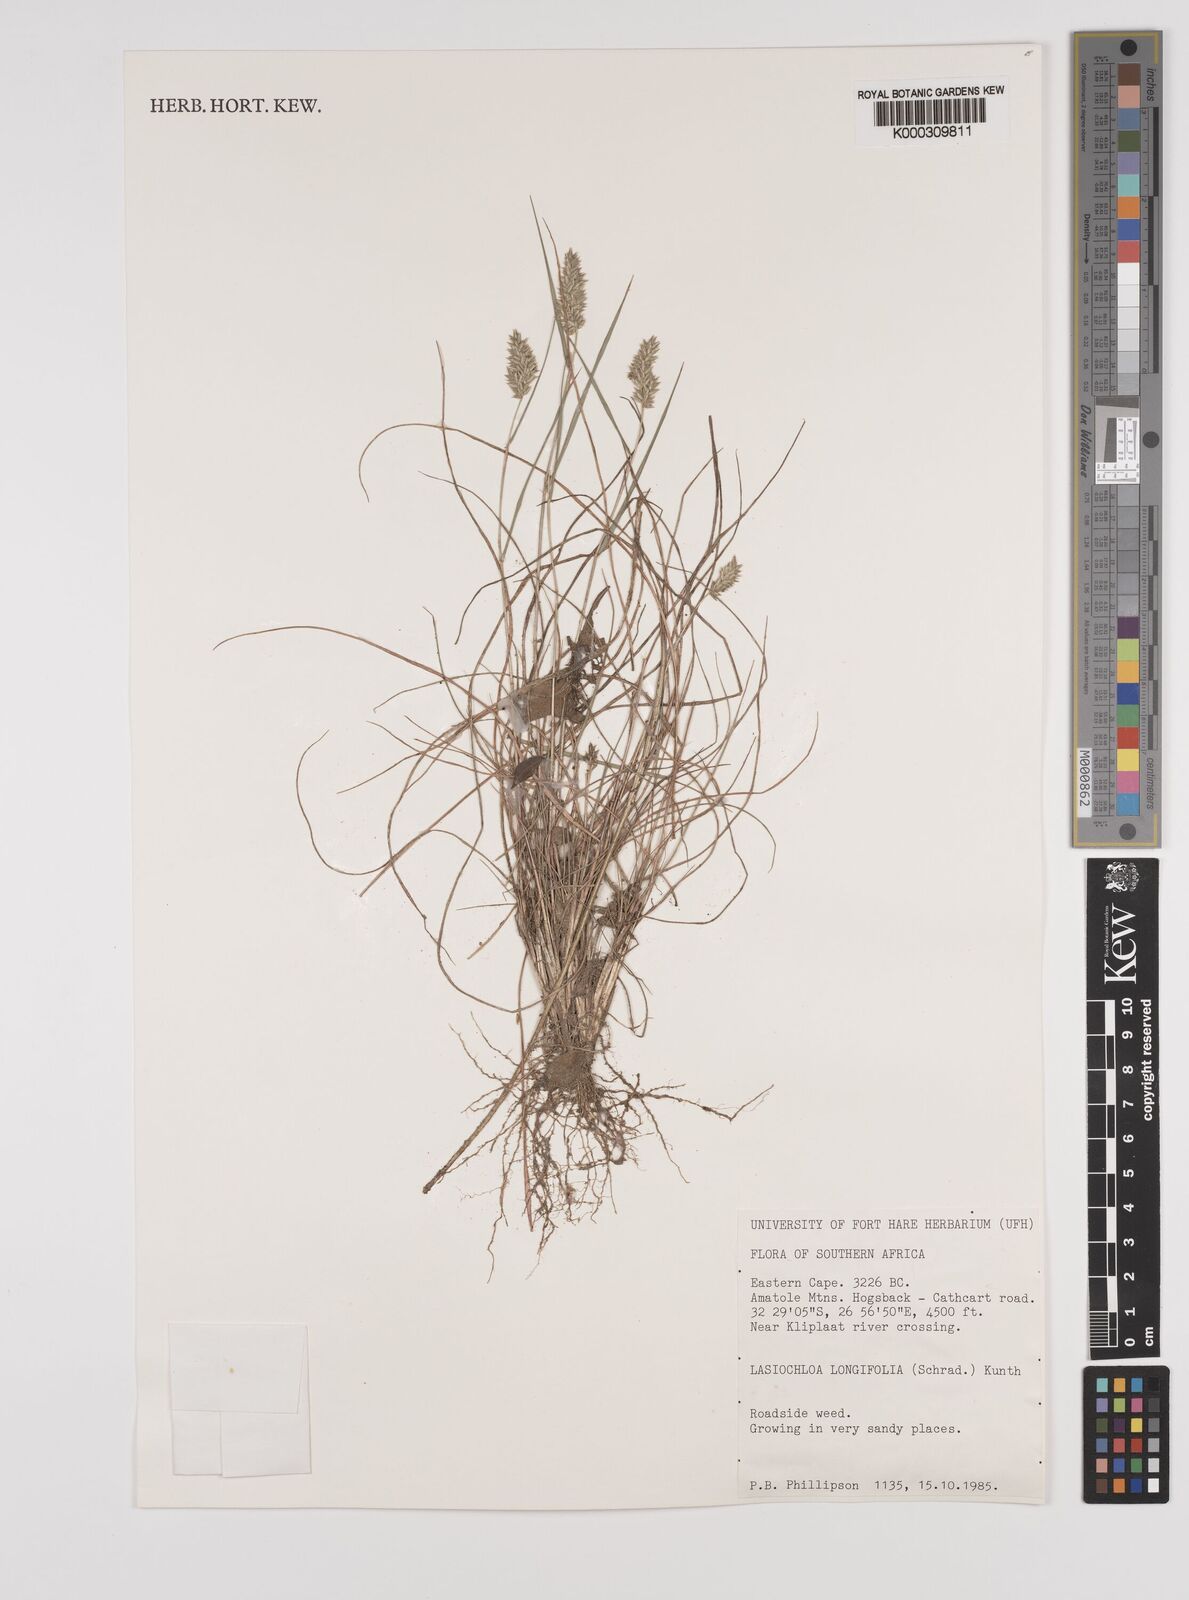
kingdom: Plantae
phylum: Tracheophyta
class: Liliopsida
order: Poales
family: Poaceae
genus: Tribolium
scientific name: Tribolium hispidum
